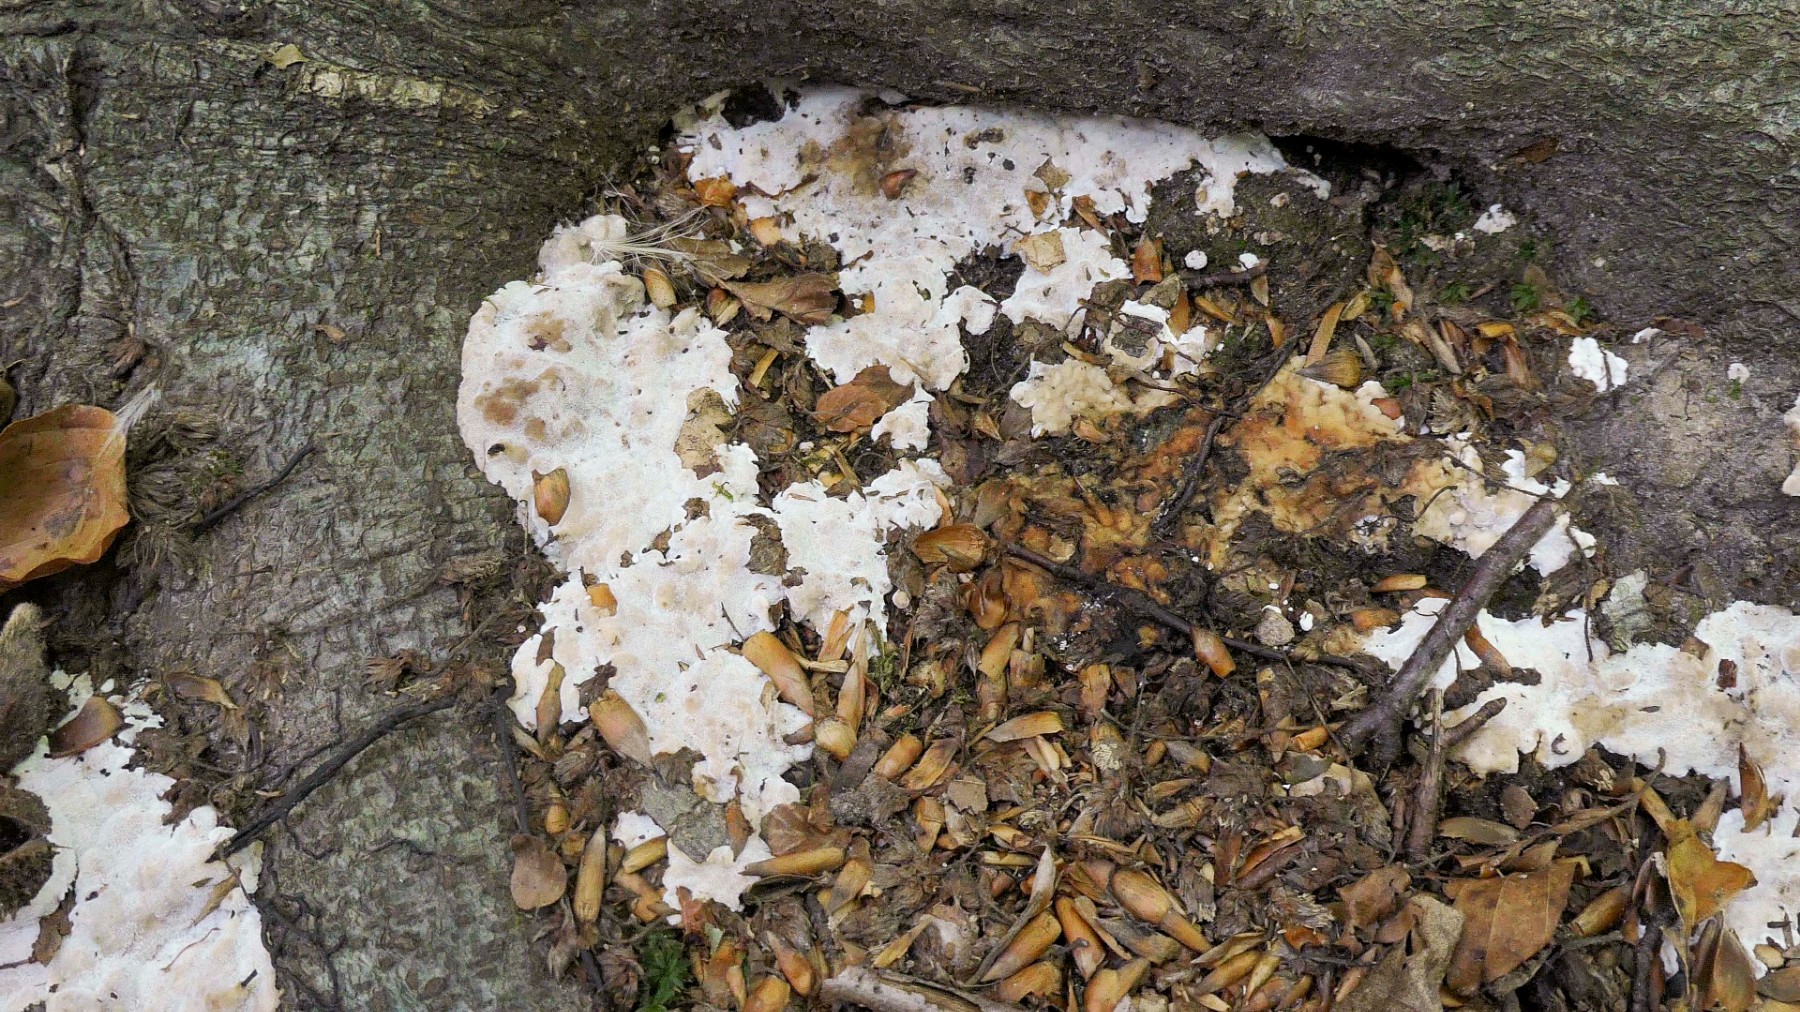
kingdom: Fungi
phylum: Basidiomycota
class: Agaricomycetes
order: Polyporales
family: Meripilaceae
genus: Rigidoporus
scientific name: Rigidoporus sanguinolentus
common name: blod-skorpeporesvamp
